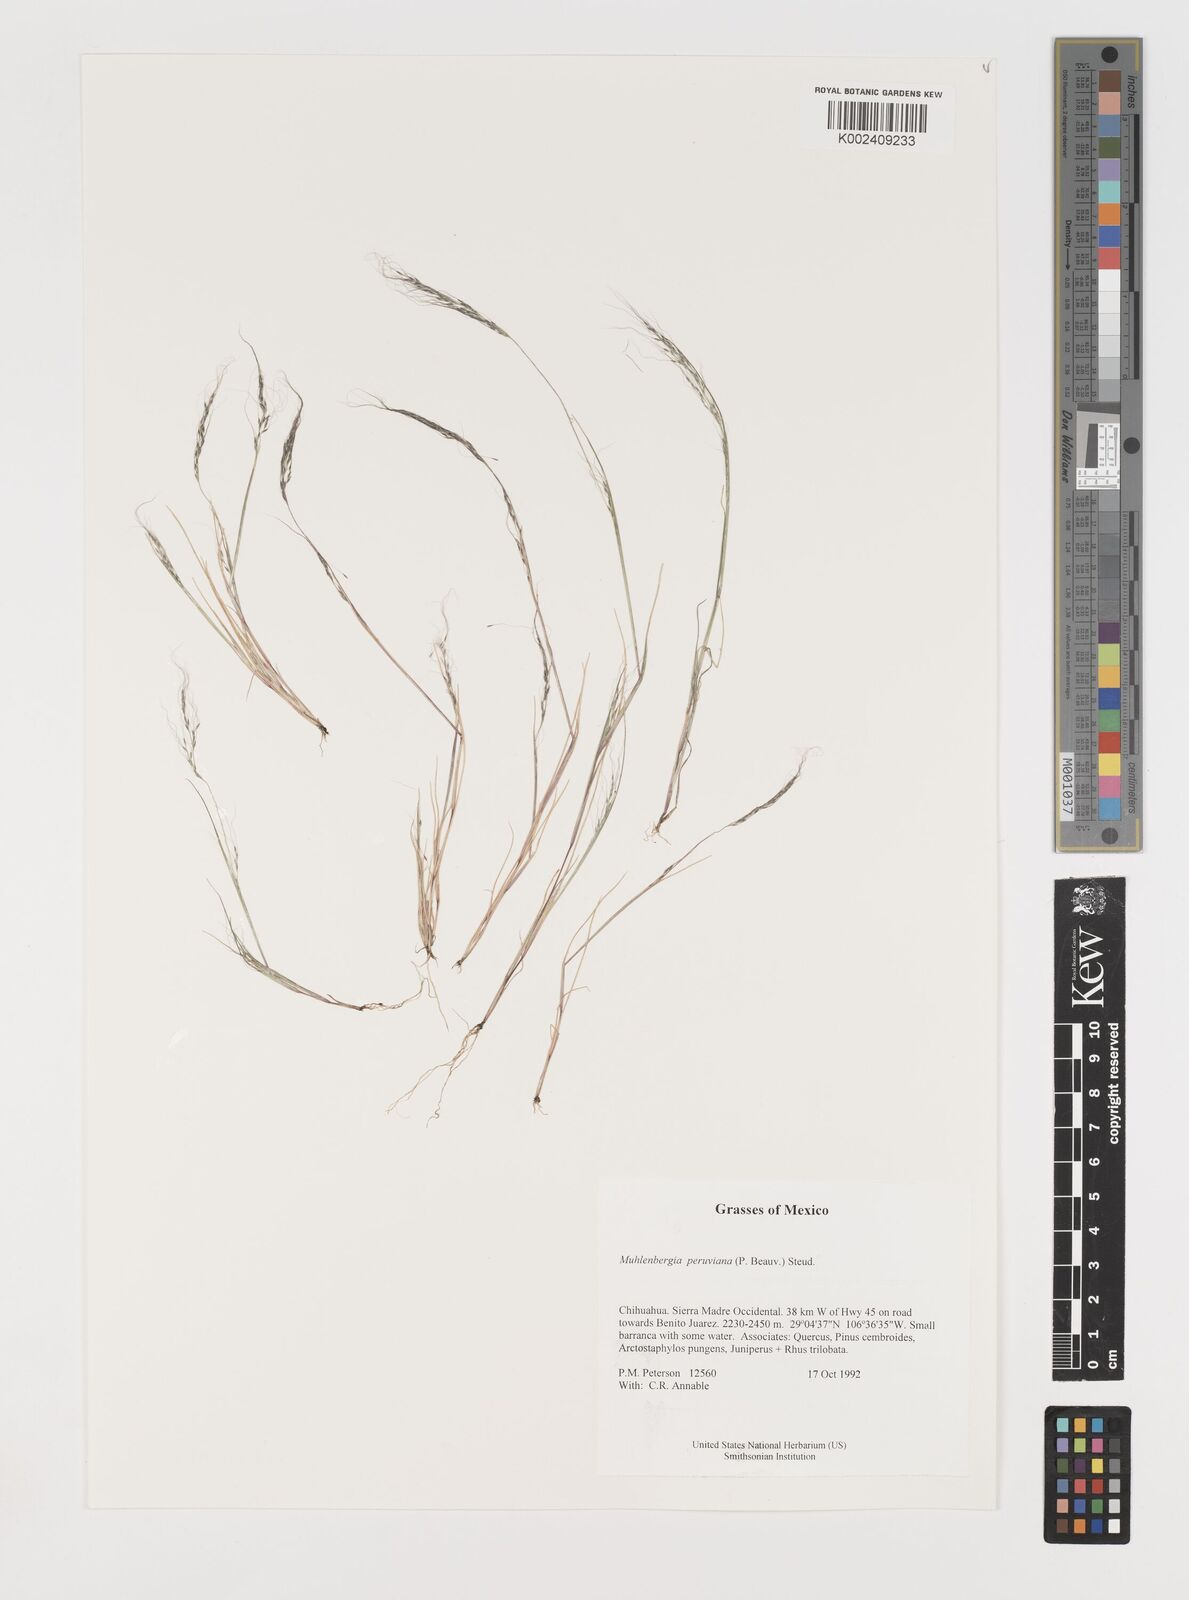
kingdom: Plantae
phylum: Tracheophyta
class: Liliopsida
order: Poales
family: Poaceae
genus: Muhlenbergia
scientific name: Muhlenbergia peruviana
